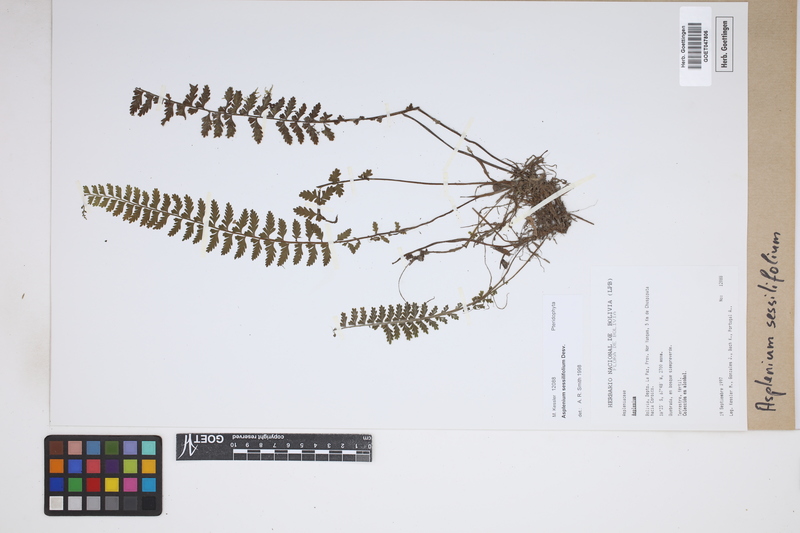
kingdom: Plantae
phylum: Tracheophyta
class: Polypodiopsida
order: Polypodiales
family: Aspleniaceae
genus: Asplenium
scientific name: Asplenium sessilifolium
